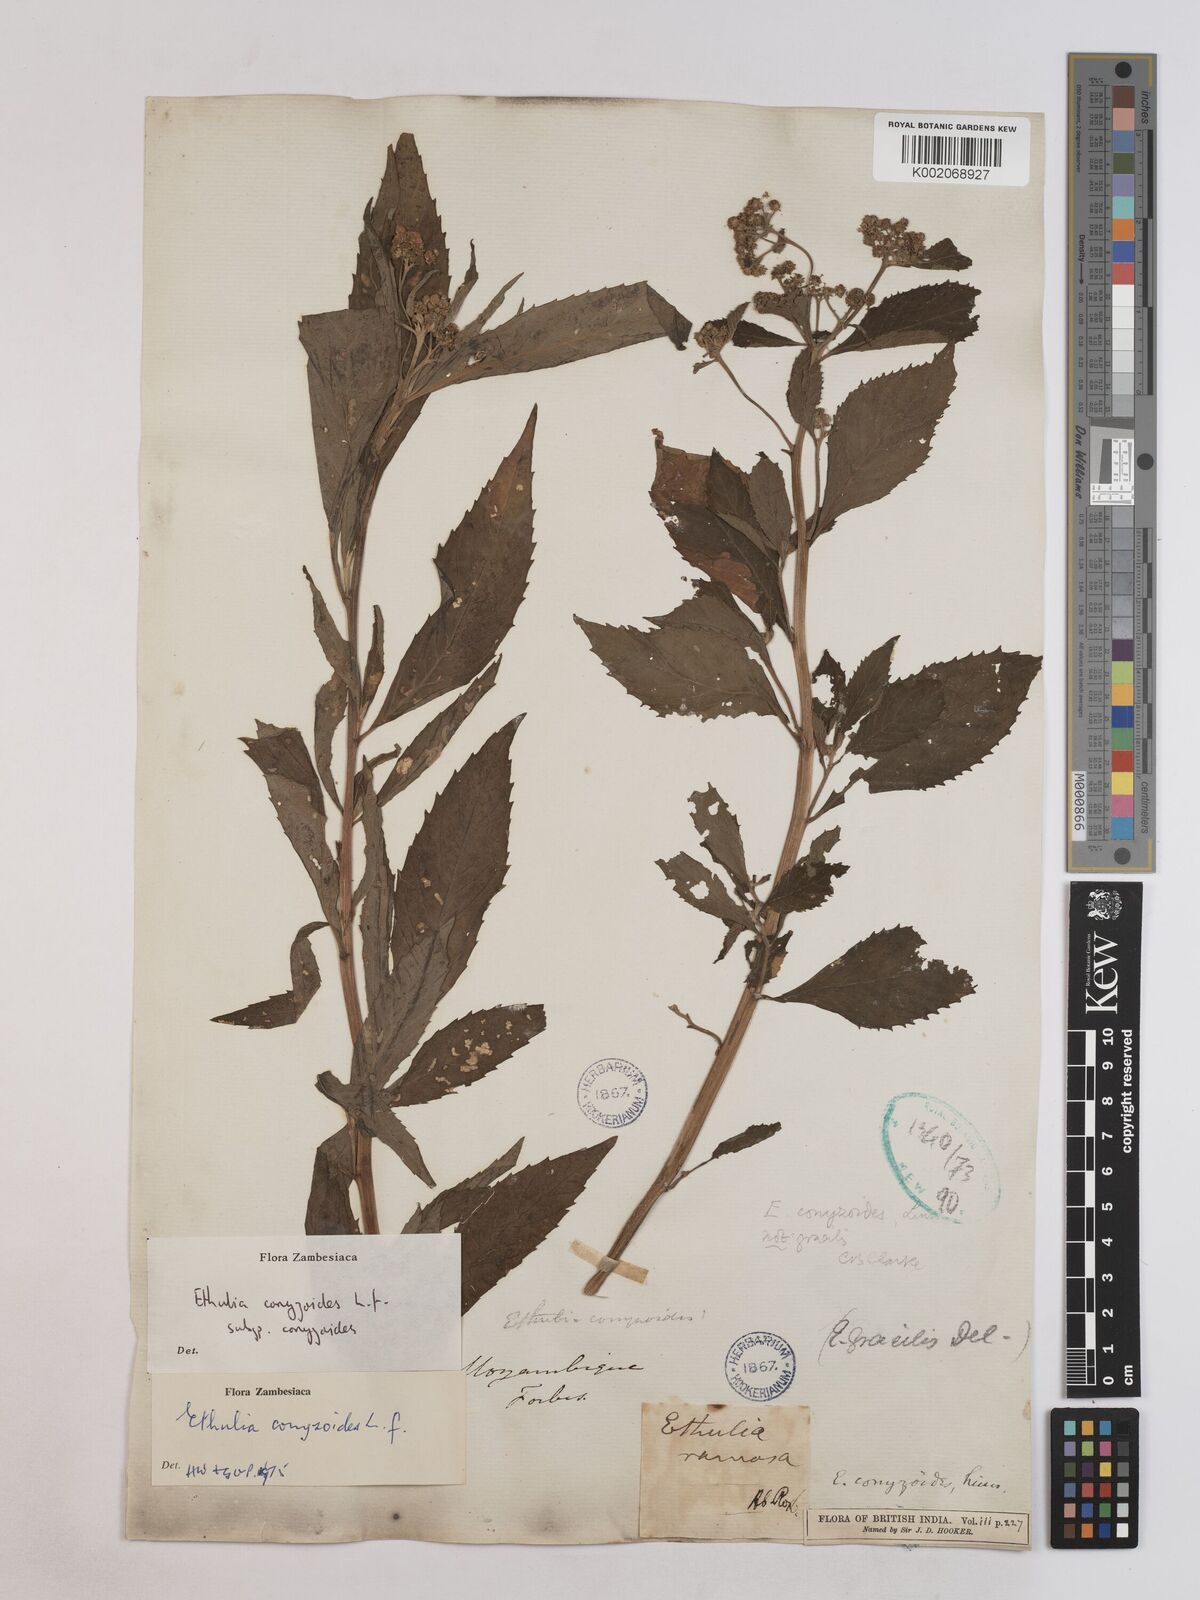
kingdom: Plantae
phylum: Tracheophyta
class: Magnoliopsida
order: Asterales
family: Asteraceae
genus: Ethulia
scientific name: Ethulia conyzoides
